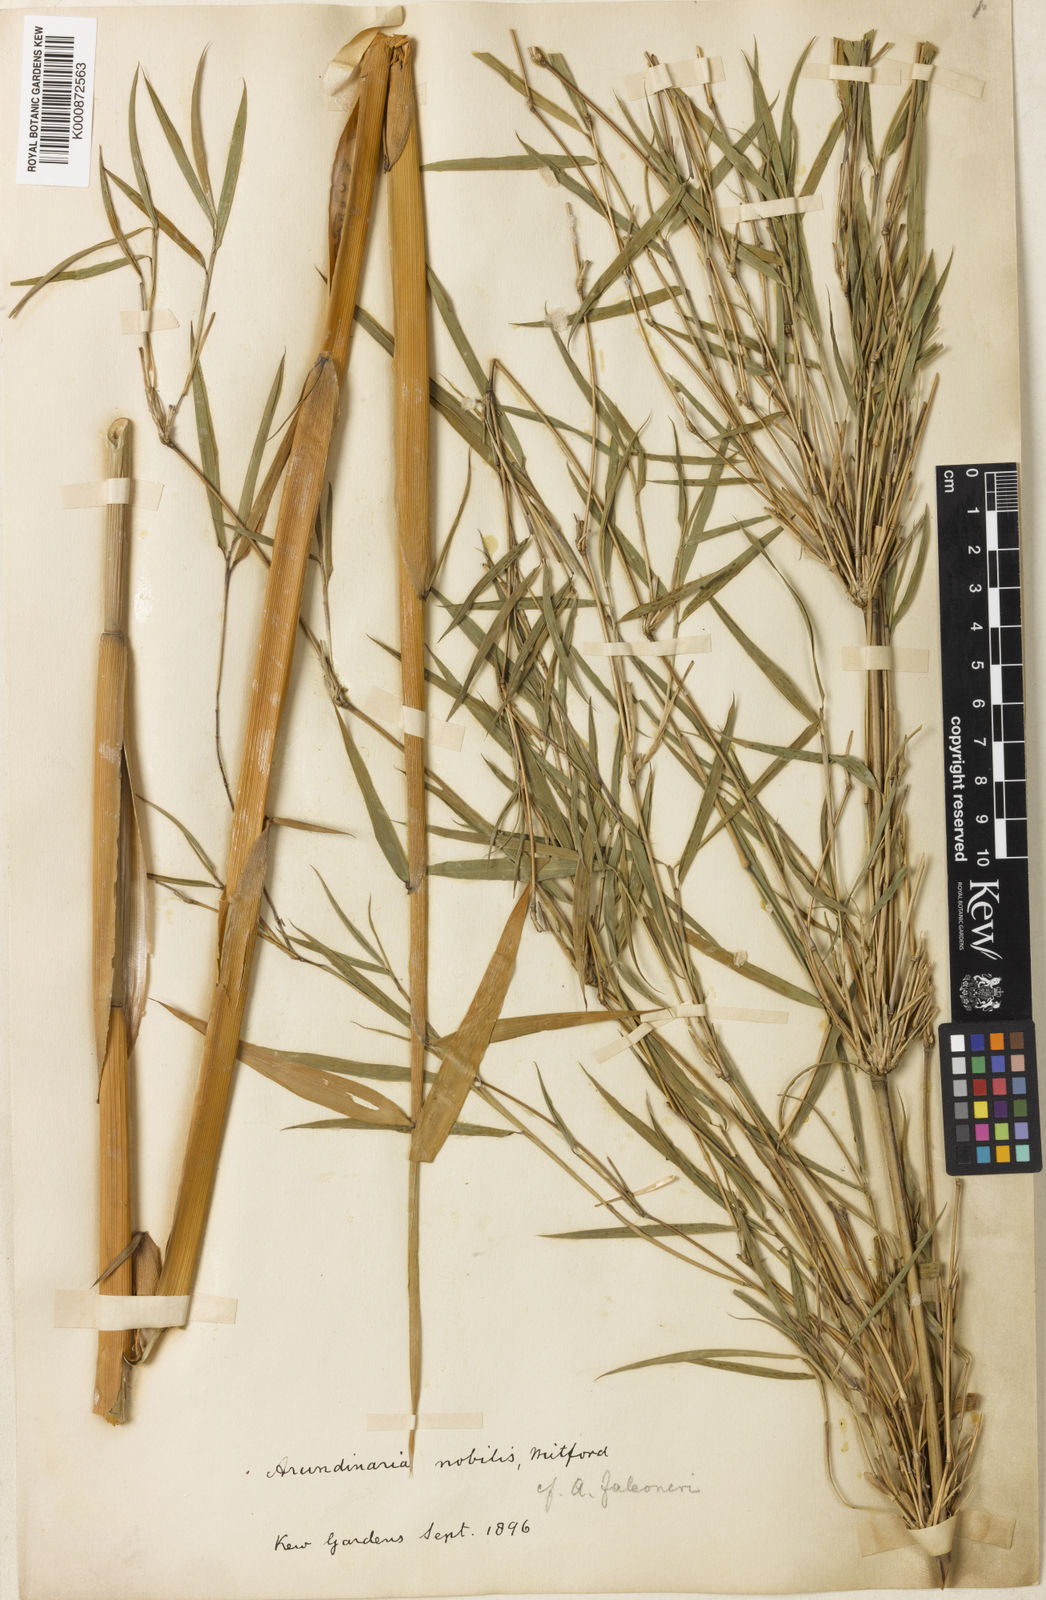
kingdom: Plantae
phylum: Tracheophyta
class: Liliopsida
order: Poales
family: Poaceae
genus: Himalayacalamus
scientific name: Himalayacalamus falconeri
